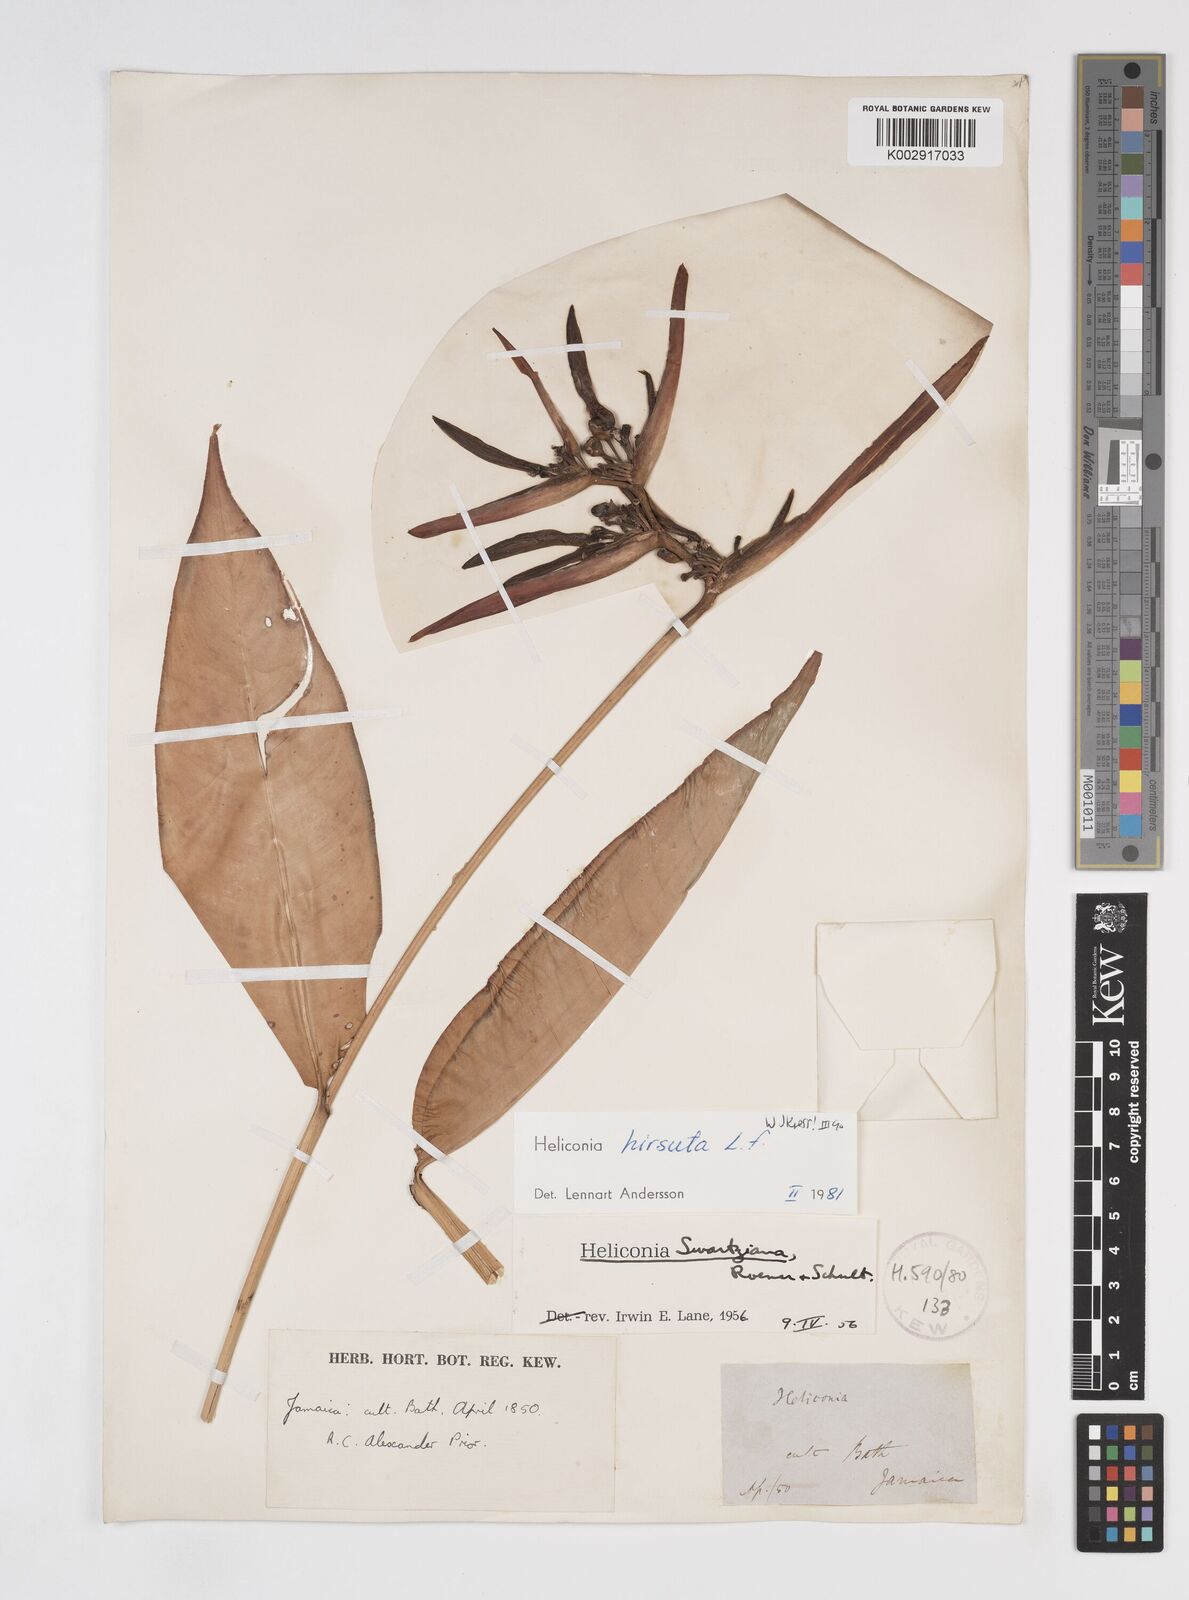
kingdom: Plantae
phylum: Tracheophyta
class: Liliopsida
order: Zingiberales
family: Heliconiaceae
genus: Heliconia
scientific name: Heliconia hirsuta
